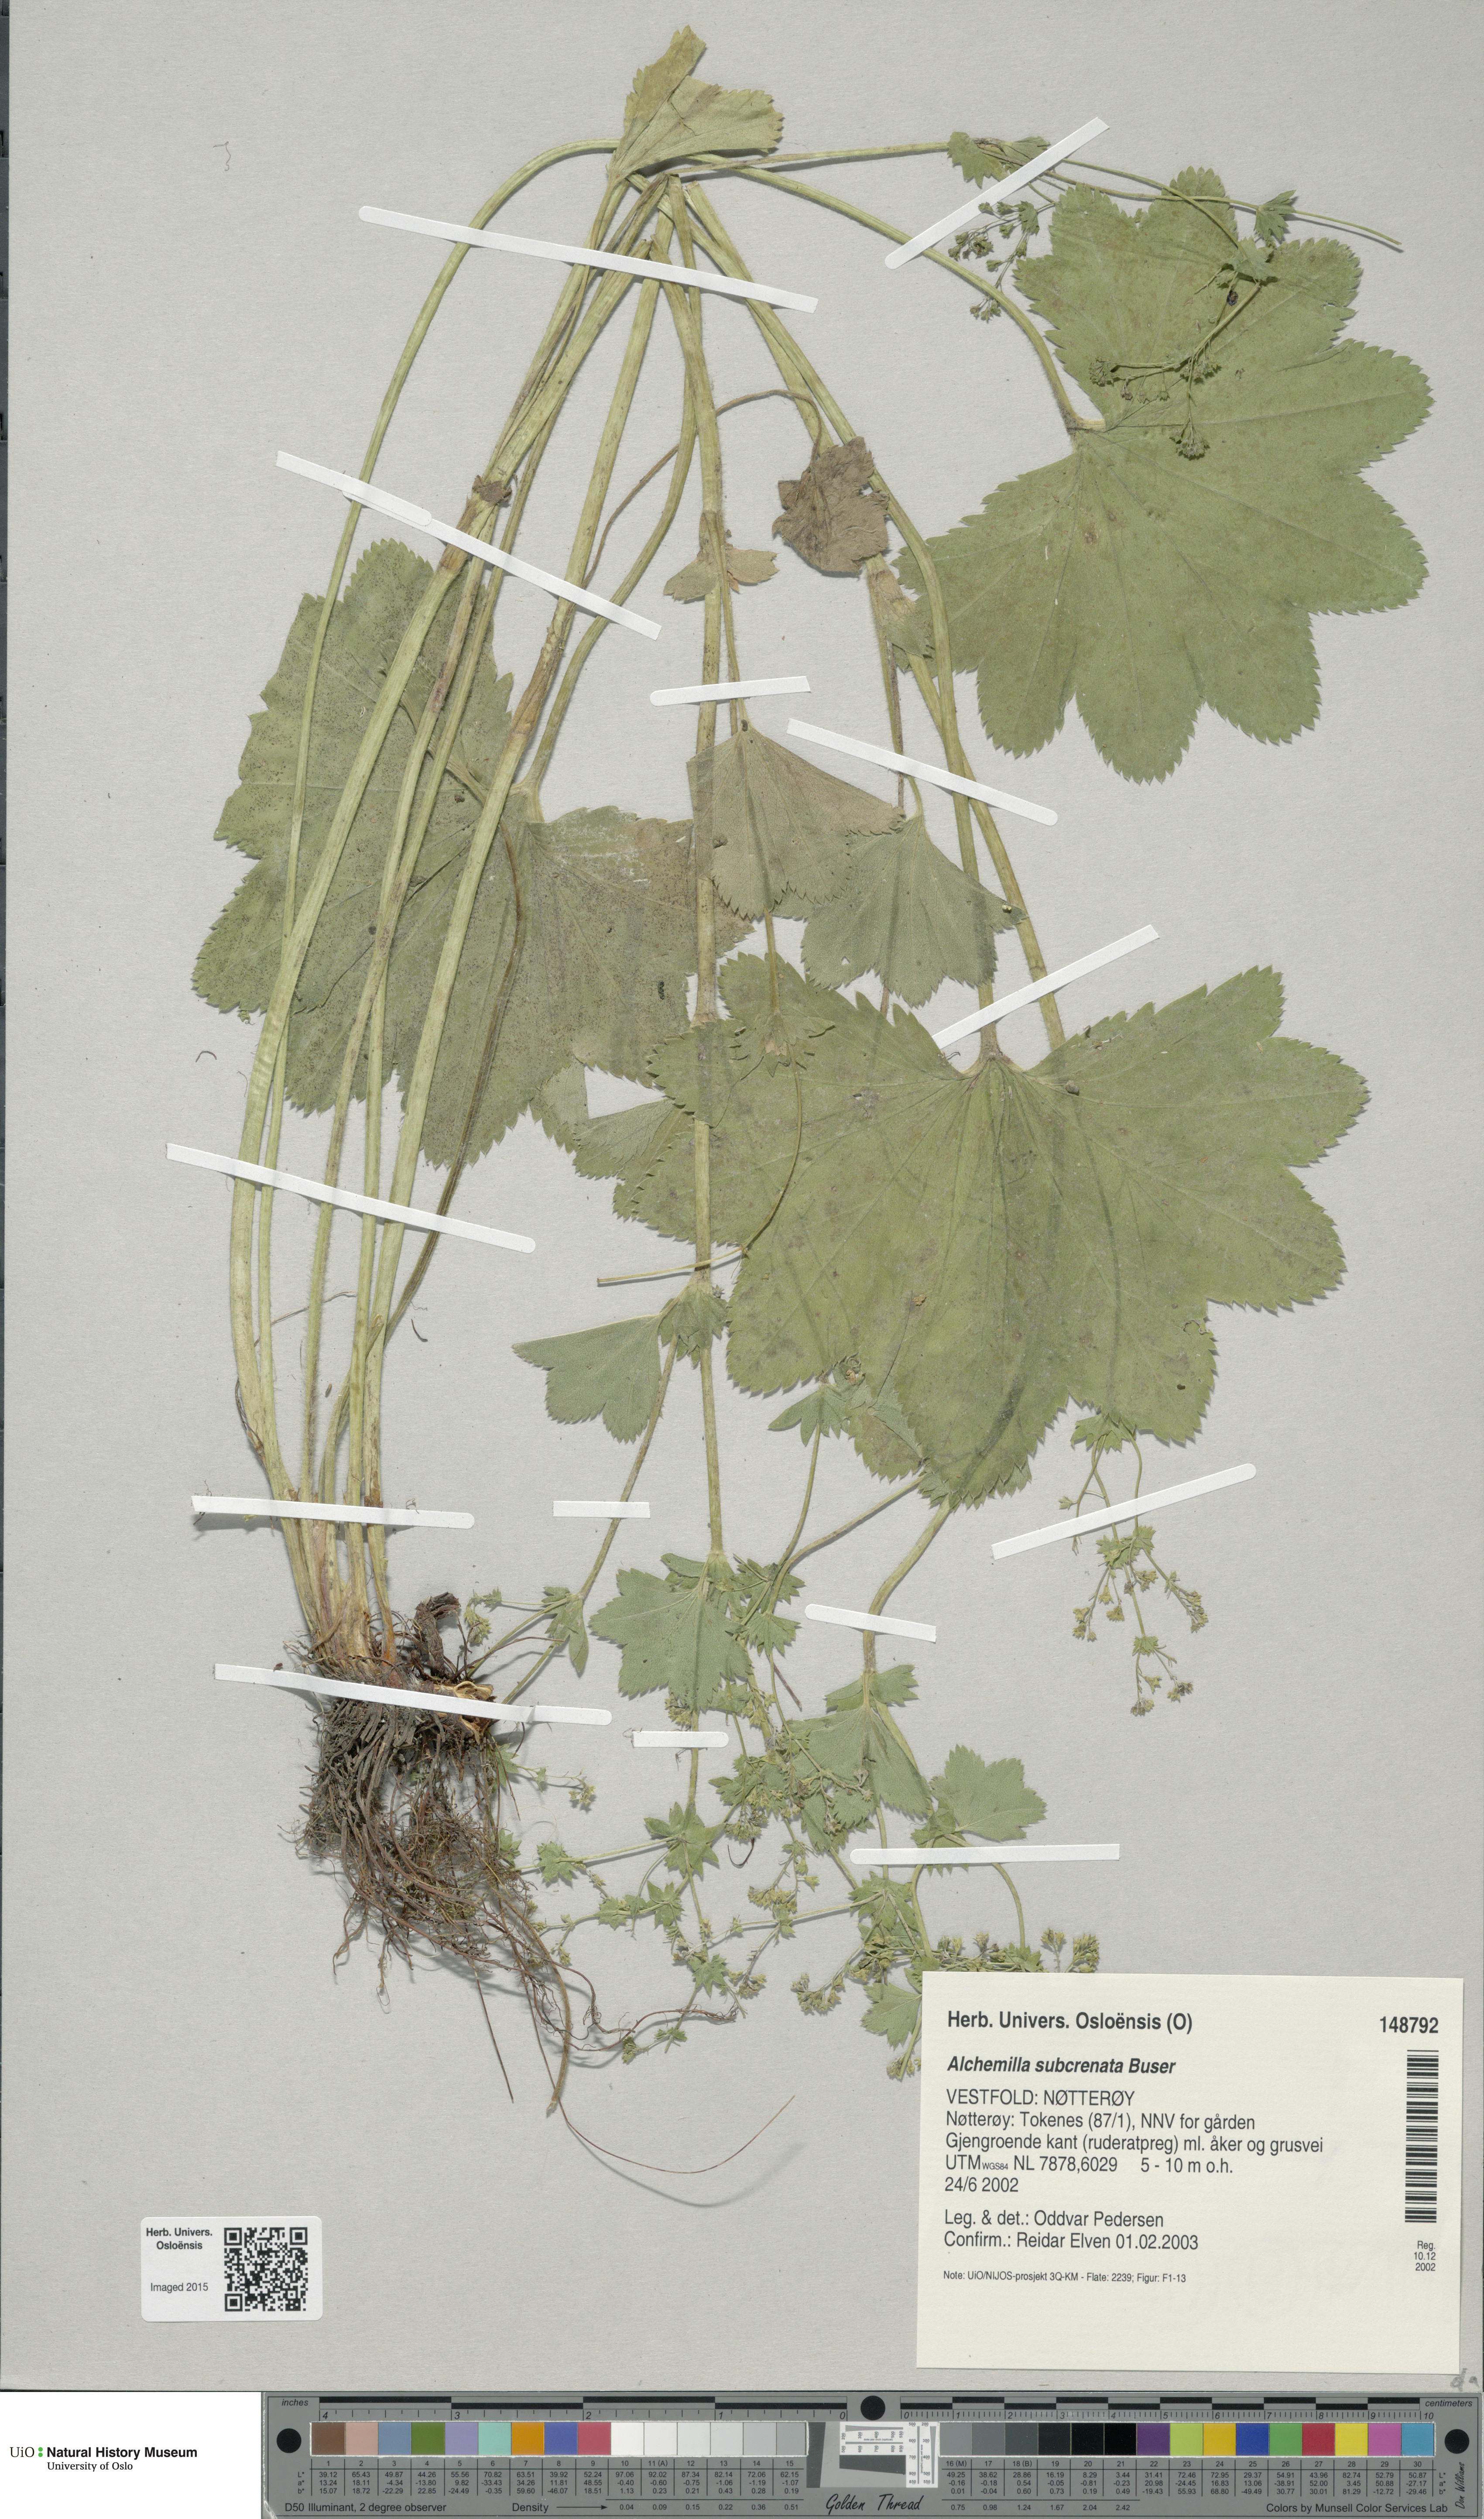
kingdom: Plantae
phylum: Tracheophyta
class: Magnoliopsida
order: Rosales
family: Rosaceae
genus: Alchemilla
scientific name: Alchemilla subcrenata
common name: Broadtooth lady's mantle
